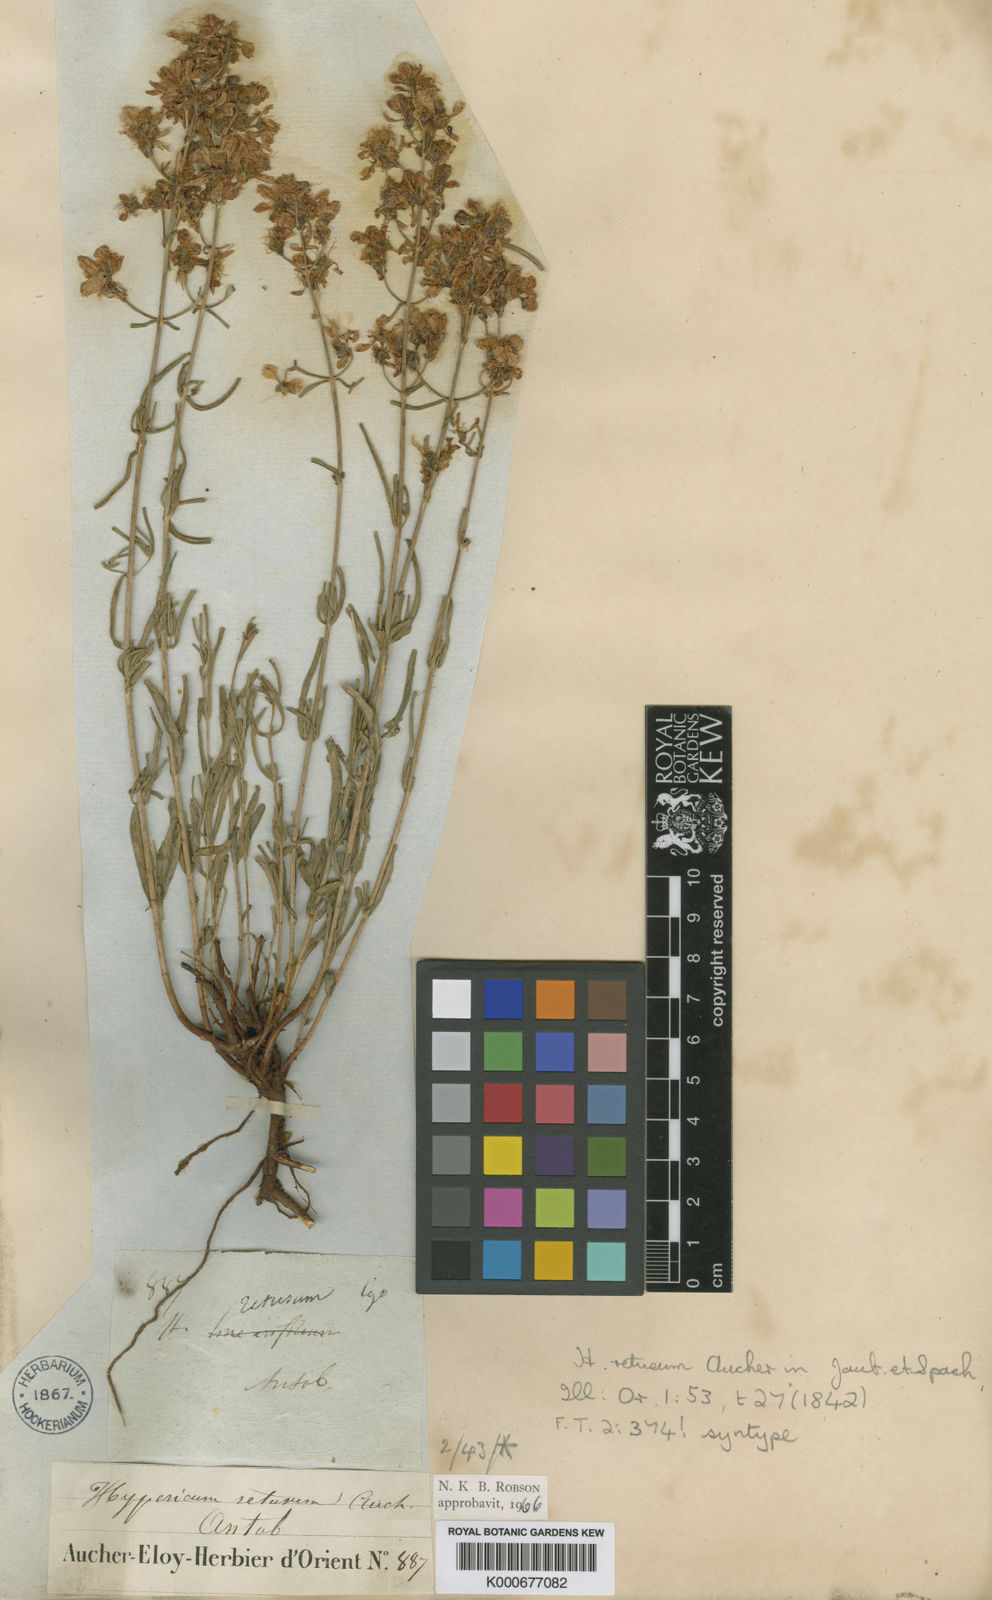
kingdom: Plantae
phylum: Tracheophyta
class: Magnoliopsida
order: Malpighiales
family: Hypericaceae
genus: Hypericum
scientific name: Hypericum
